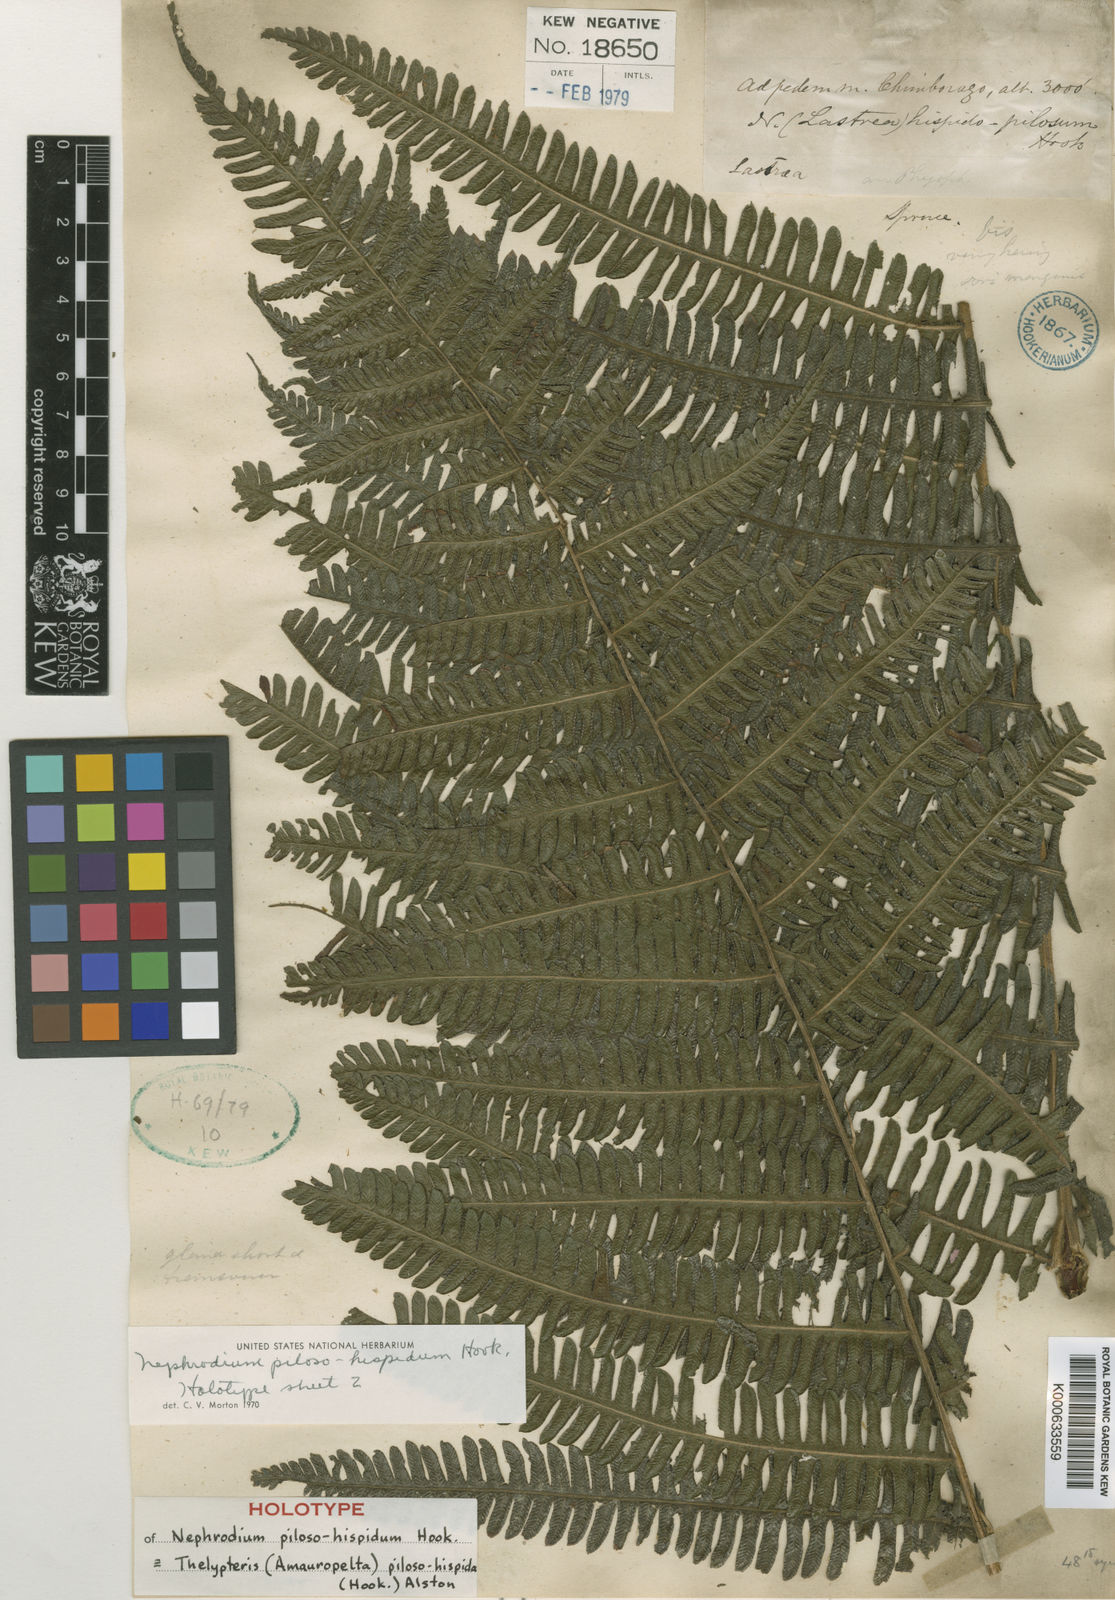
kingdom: Plantae
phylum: Tracheophyta
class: Polypodiopsida
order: Polypodiales
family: Thelypteridaceae
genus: Amauropelta
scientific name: Amauropelta pilosohispida
